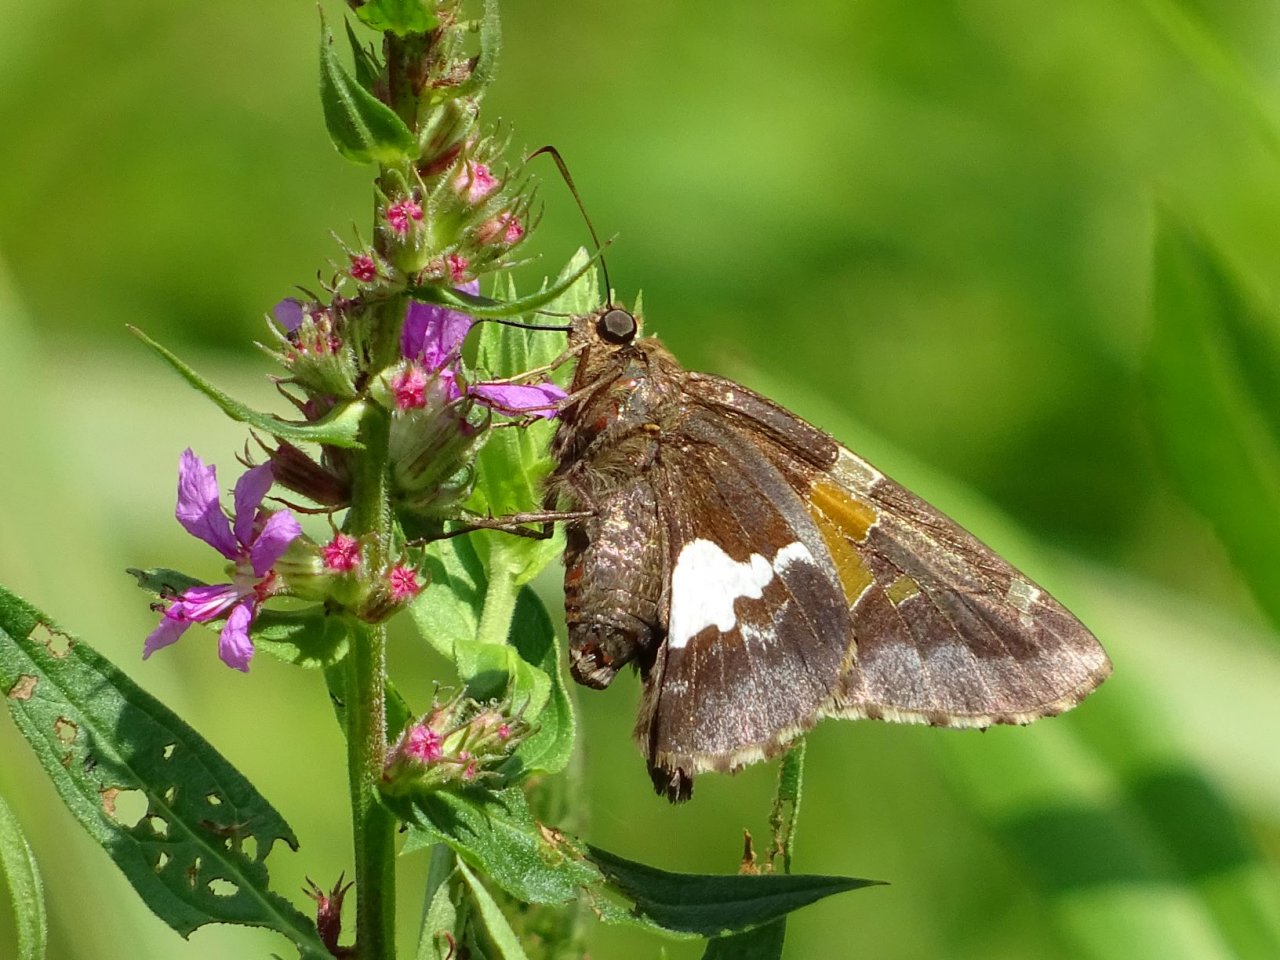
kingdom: Animalia
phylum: Arthropoda
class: Insecta
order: Lepidoptera
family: Hesperiidae
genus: Epargyreus
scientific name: Epargyreus clarus
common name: Silver-spotted Skipper
